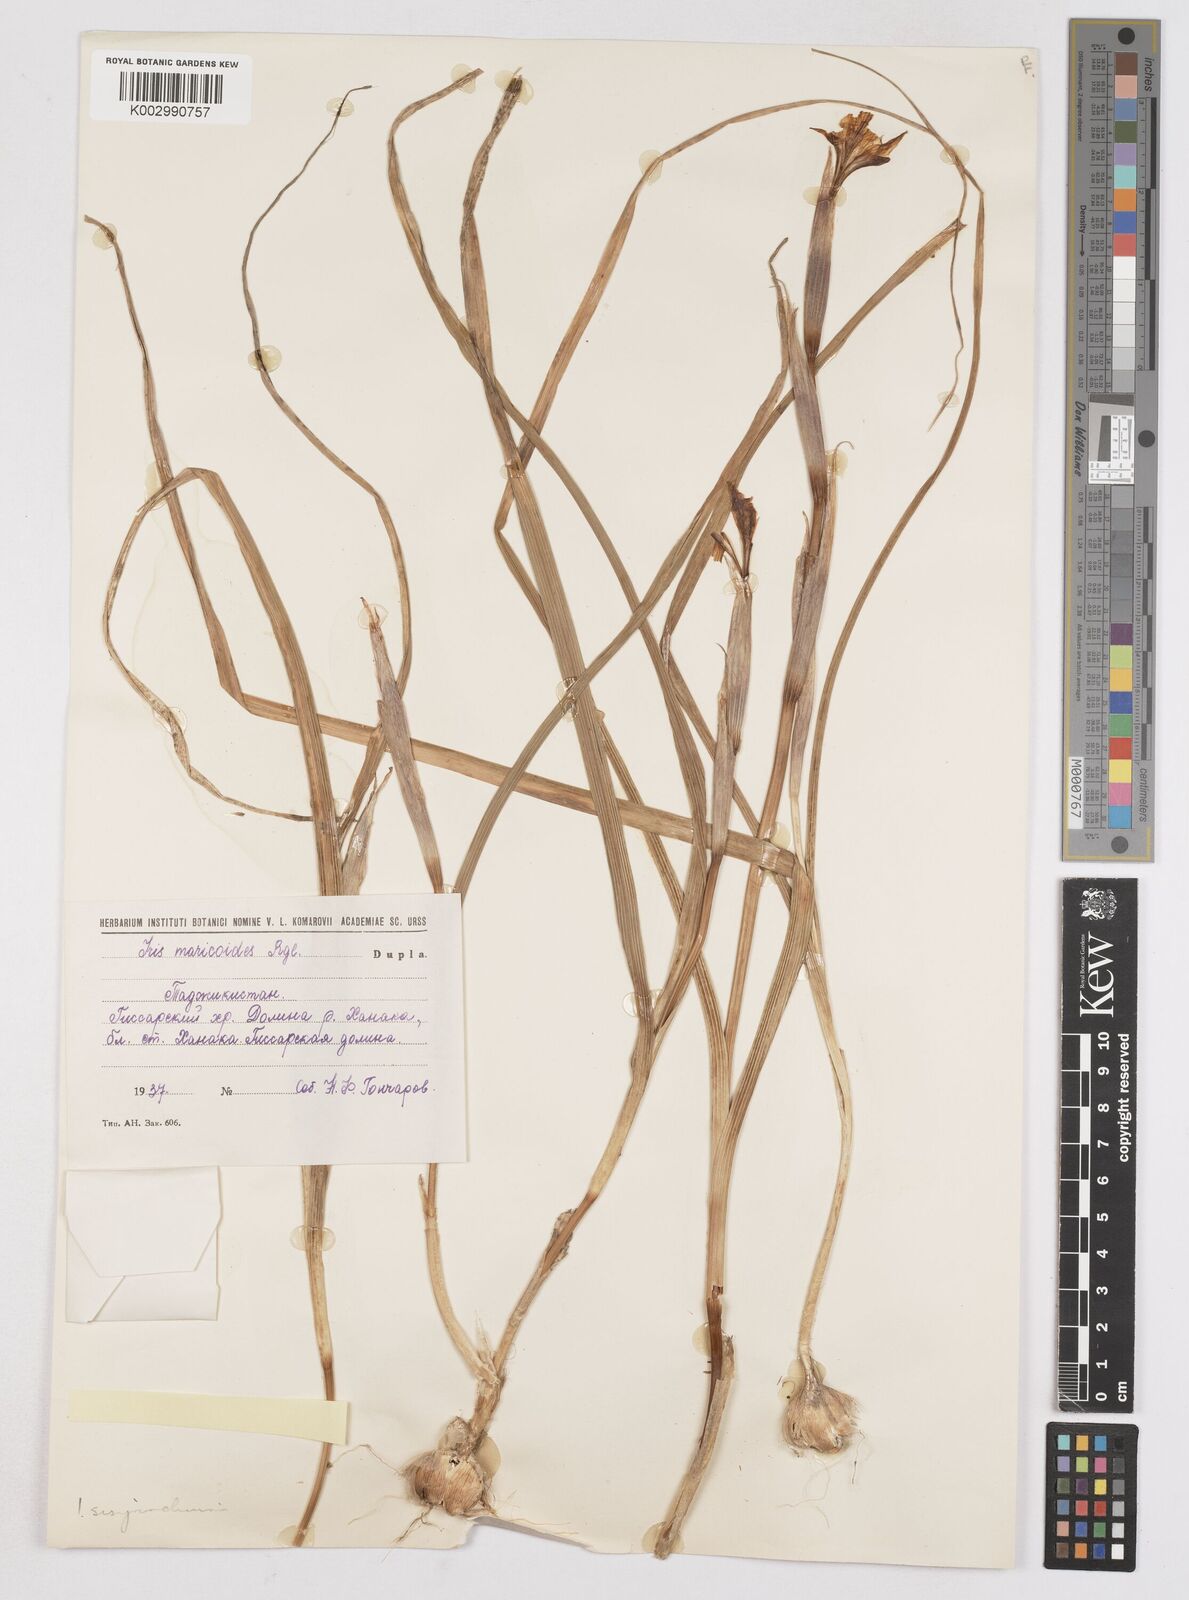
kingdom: Plantae
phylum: Tracheophyta
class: Liliopsida
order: Asparagales
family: Iridaceae
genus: Moraea
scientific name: Moraea sisyrinchium
